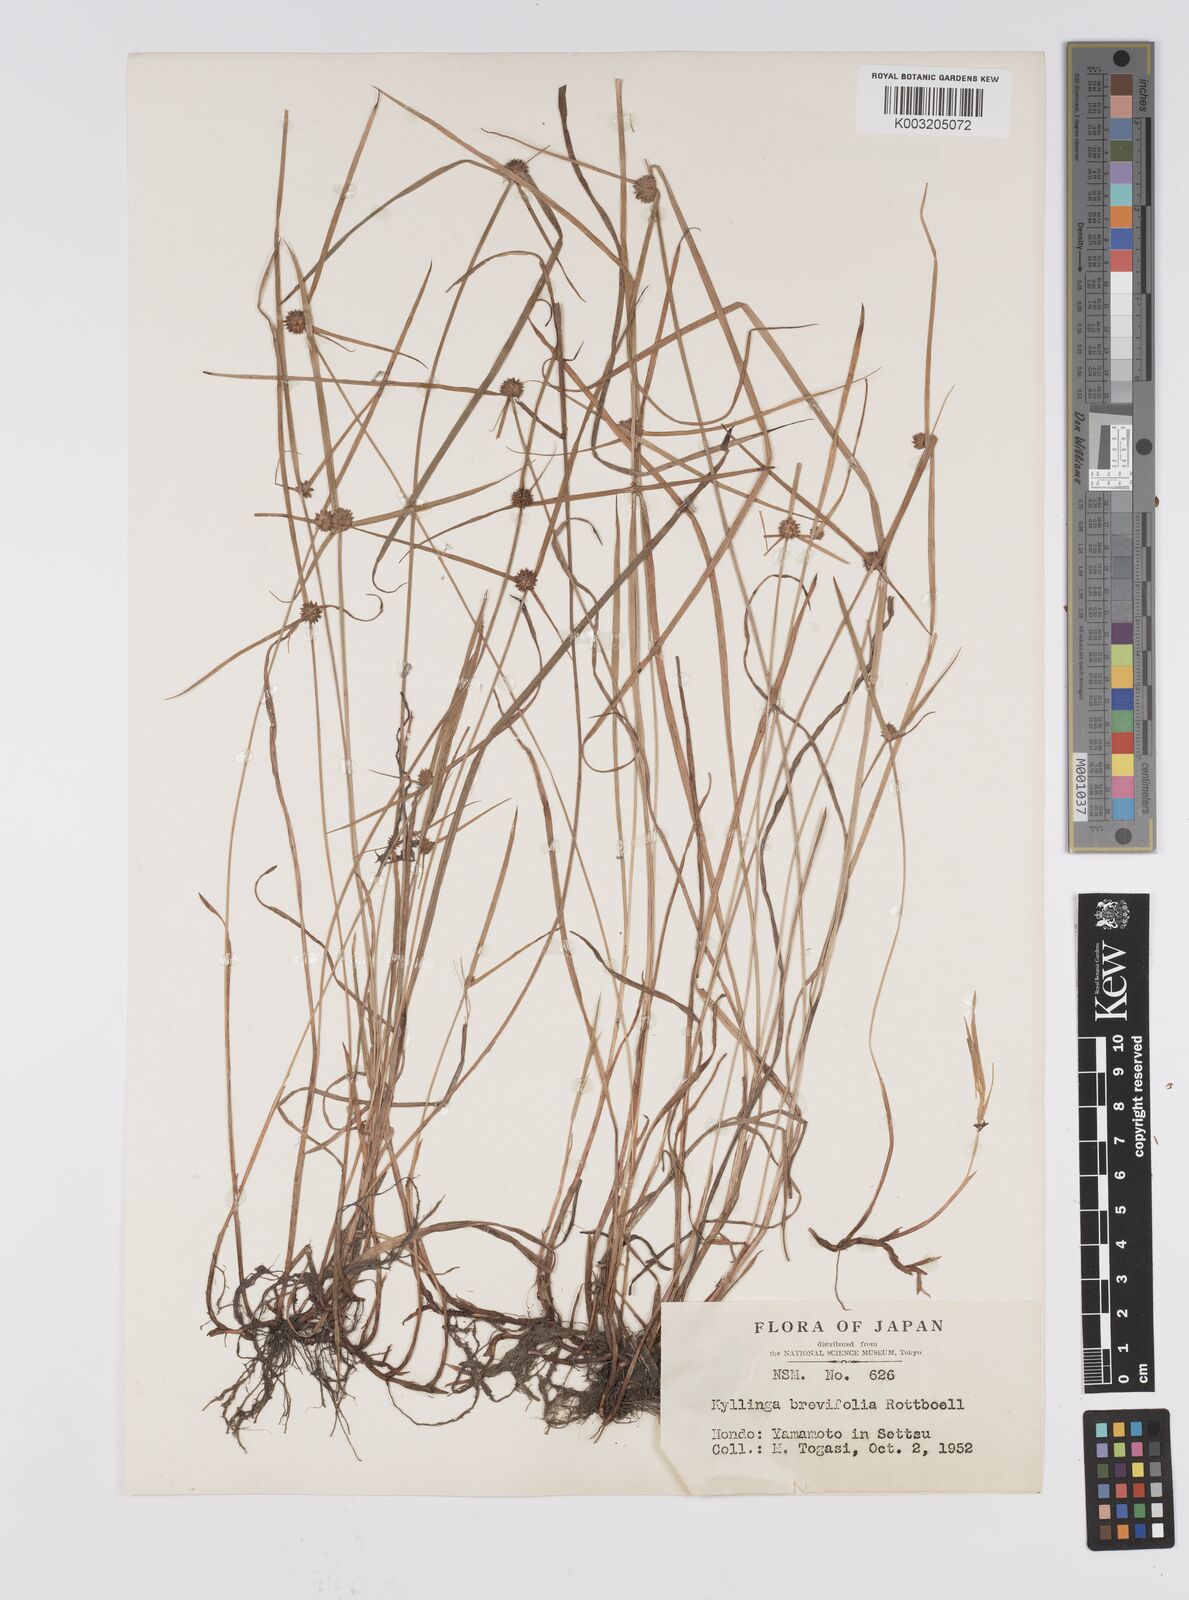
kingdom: Plantae
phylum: Tracheophyta
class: Liliopsida
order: Poales
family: Cyperaceae
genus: Cyperus
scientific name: Cyperus brevifolius
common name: Globe kyllinga
